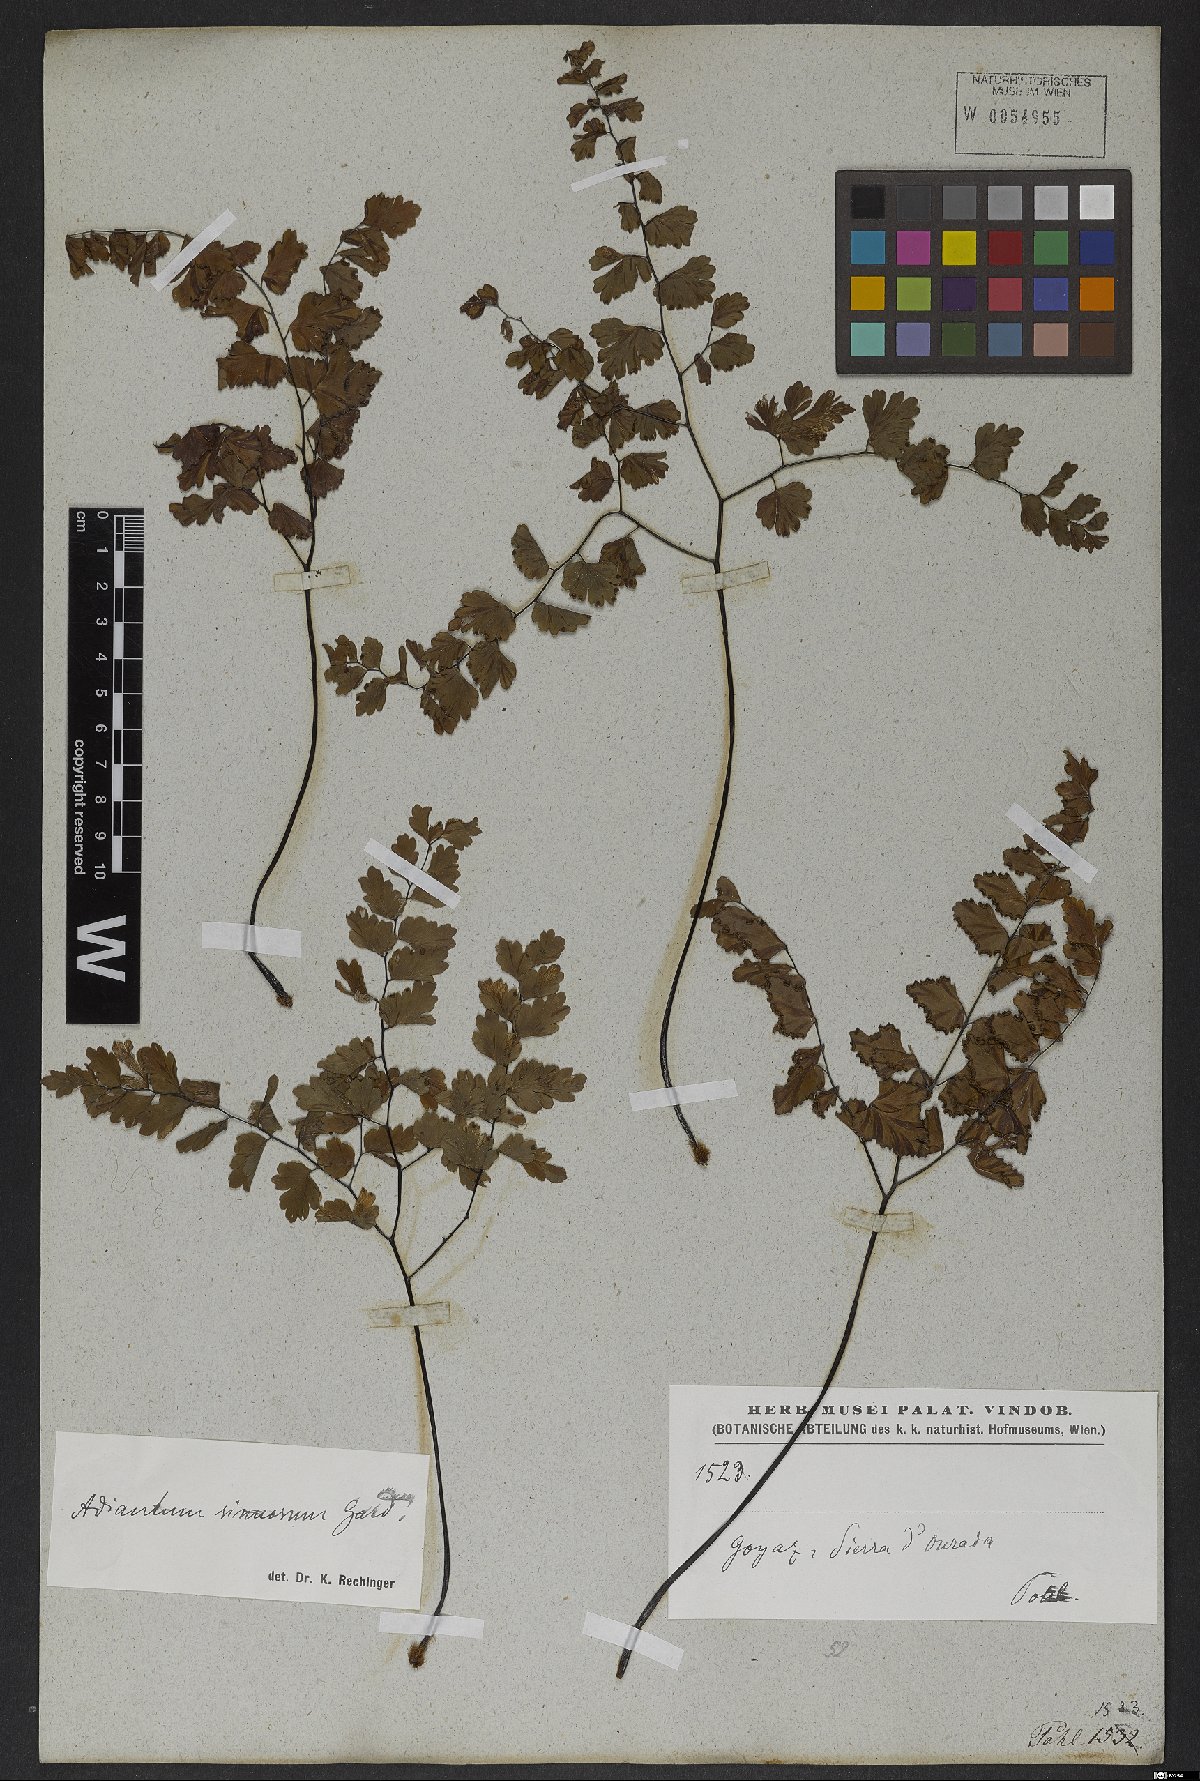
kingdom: Plantae
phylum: Tracheophyta
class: Polypodiopsida
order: Polypodiales
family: Pteridaceae
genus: Adiantum
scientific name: Adiantum sinuosum
